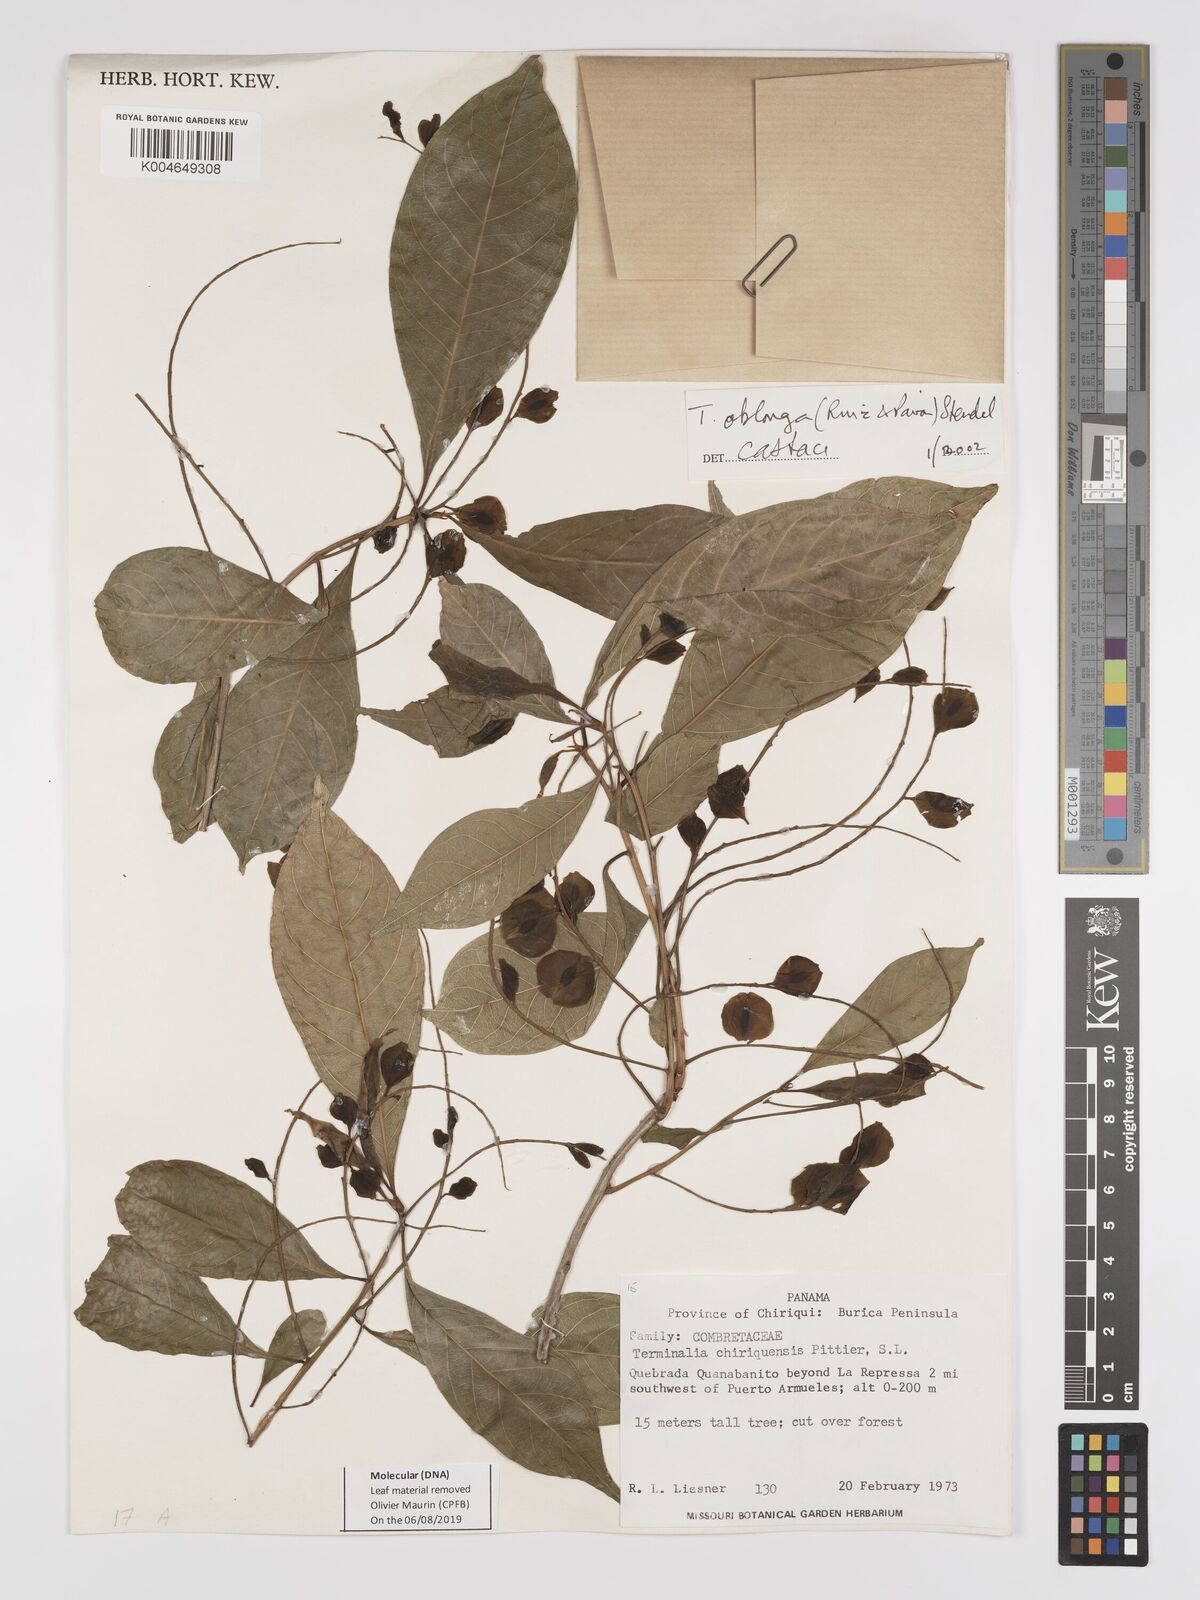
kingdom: Plantae
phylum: Tracheophyta
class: Magnoliopsida
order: Myrtales
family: Combretaceae
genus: Terminalia
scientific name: Terminalia oblonga
